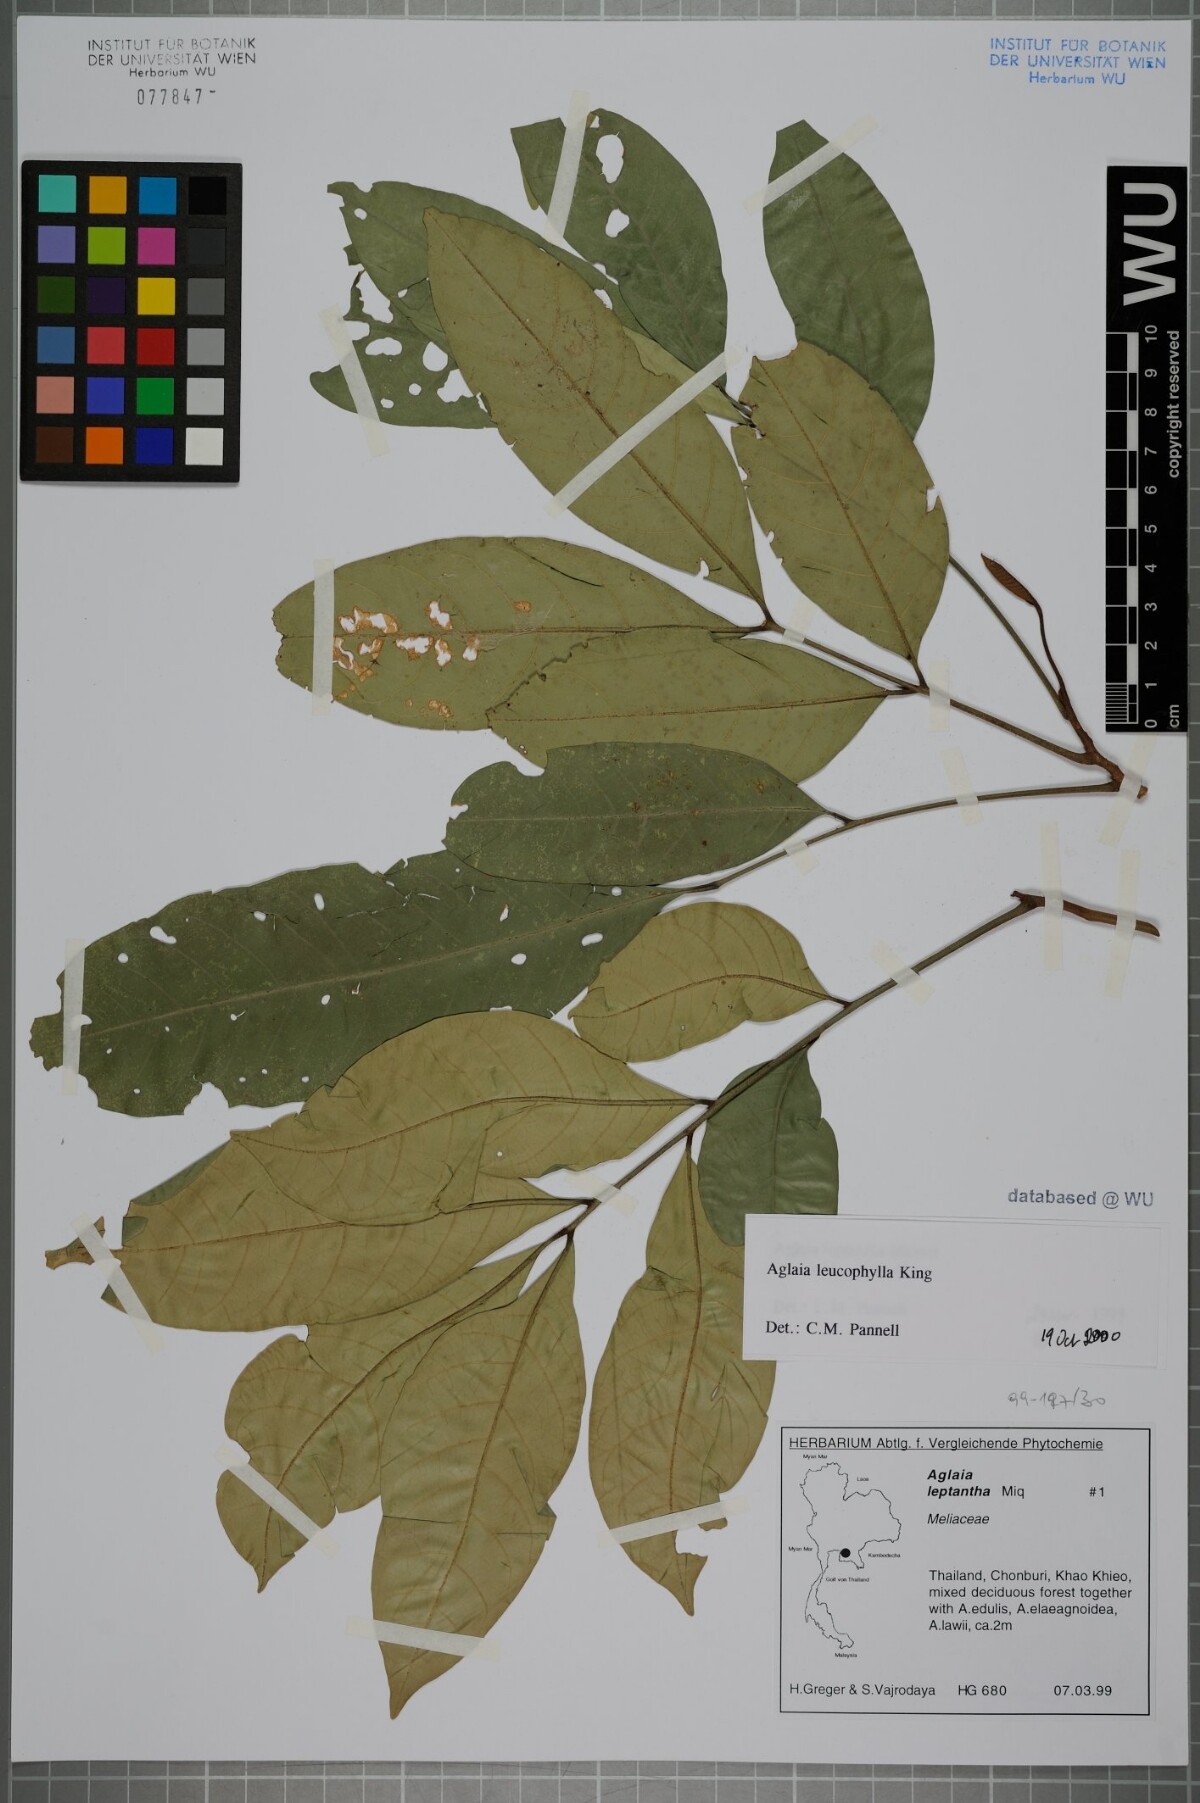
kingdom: Plantae
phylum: Tracheophyta
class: Magnoliopsida
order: Sapindales
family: Meliaceae
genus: Aglaia
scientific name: Aglaia leucophylla
